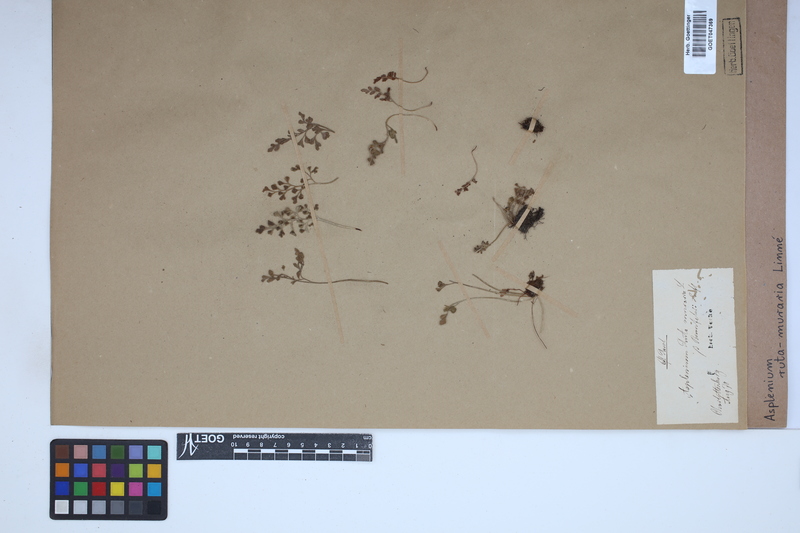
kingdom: Plantae
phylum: Tracheophyta
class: Polypodiopsida
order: Polypodiales
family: Aspleniaceae
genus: Asplenium
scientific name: Asplenium ruta-muraria
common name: Wall-rue
